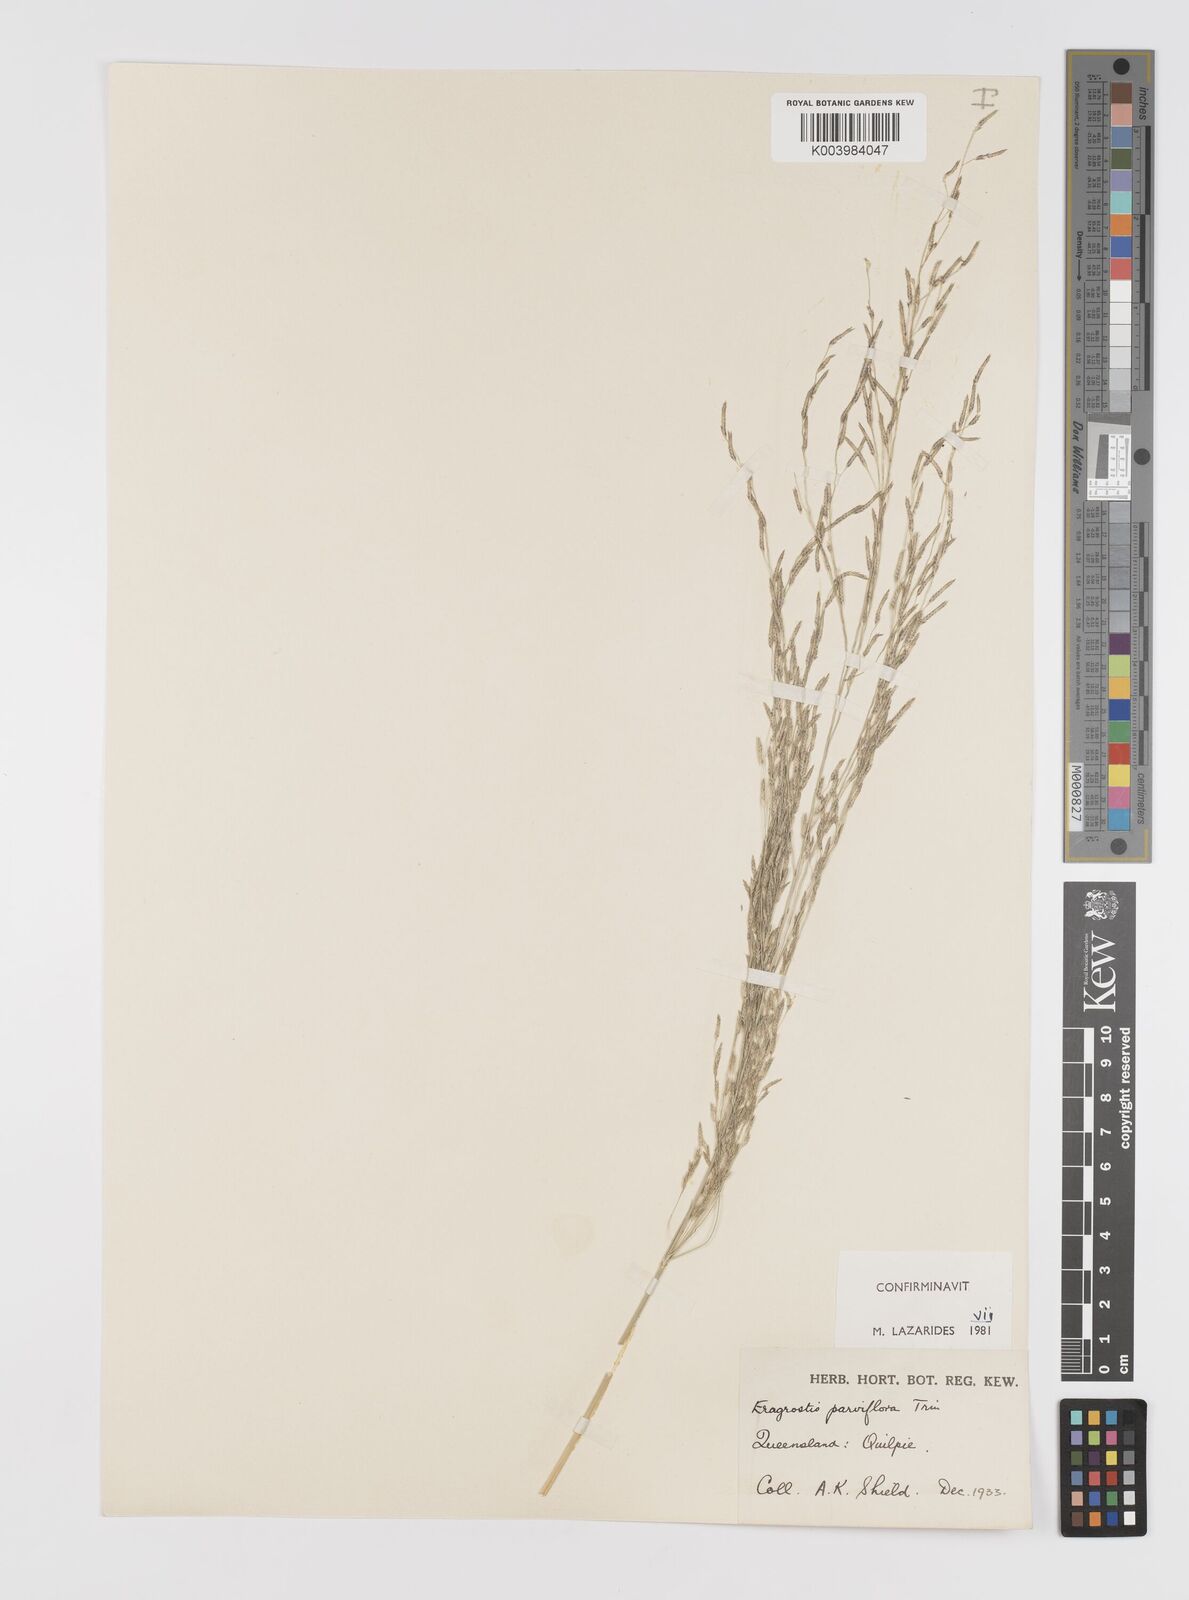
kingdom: Plantae
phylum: Tracheophyta
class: Liliopsida
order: Poales
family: Poaceae
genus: Eragrostis
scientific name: Eragrostis parviflora
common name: Weeping love-grass
